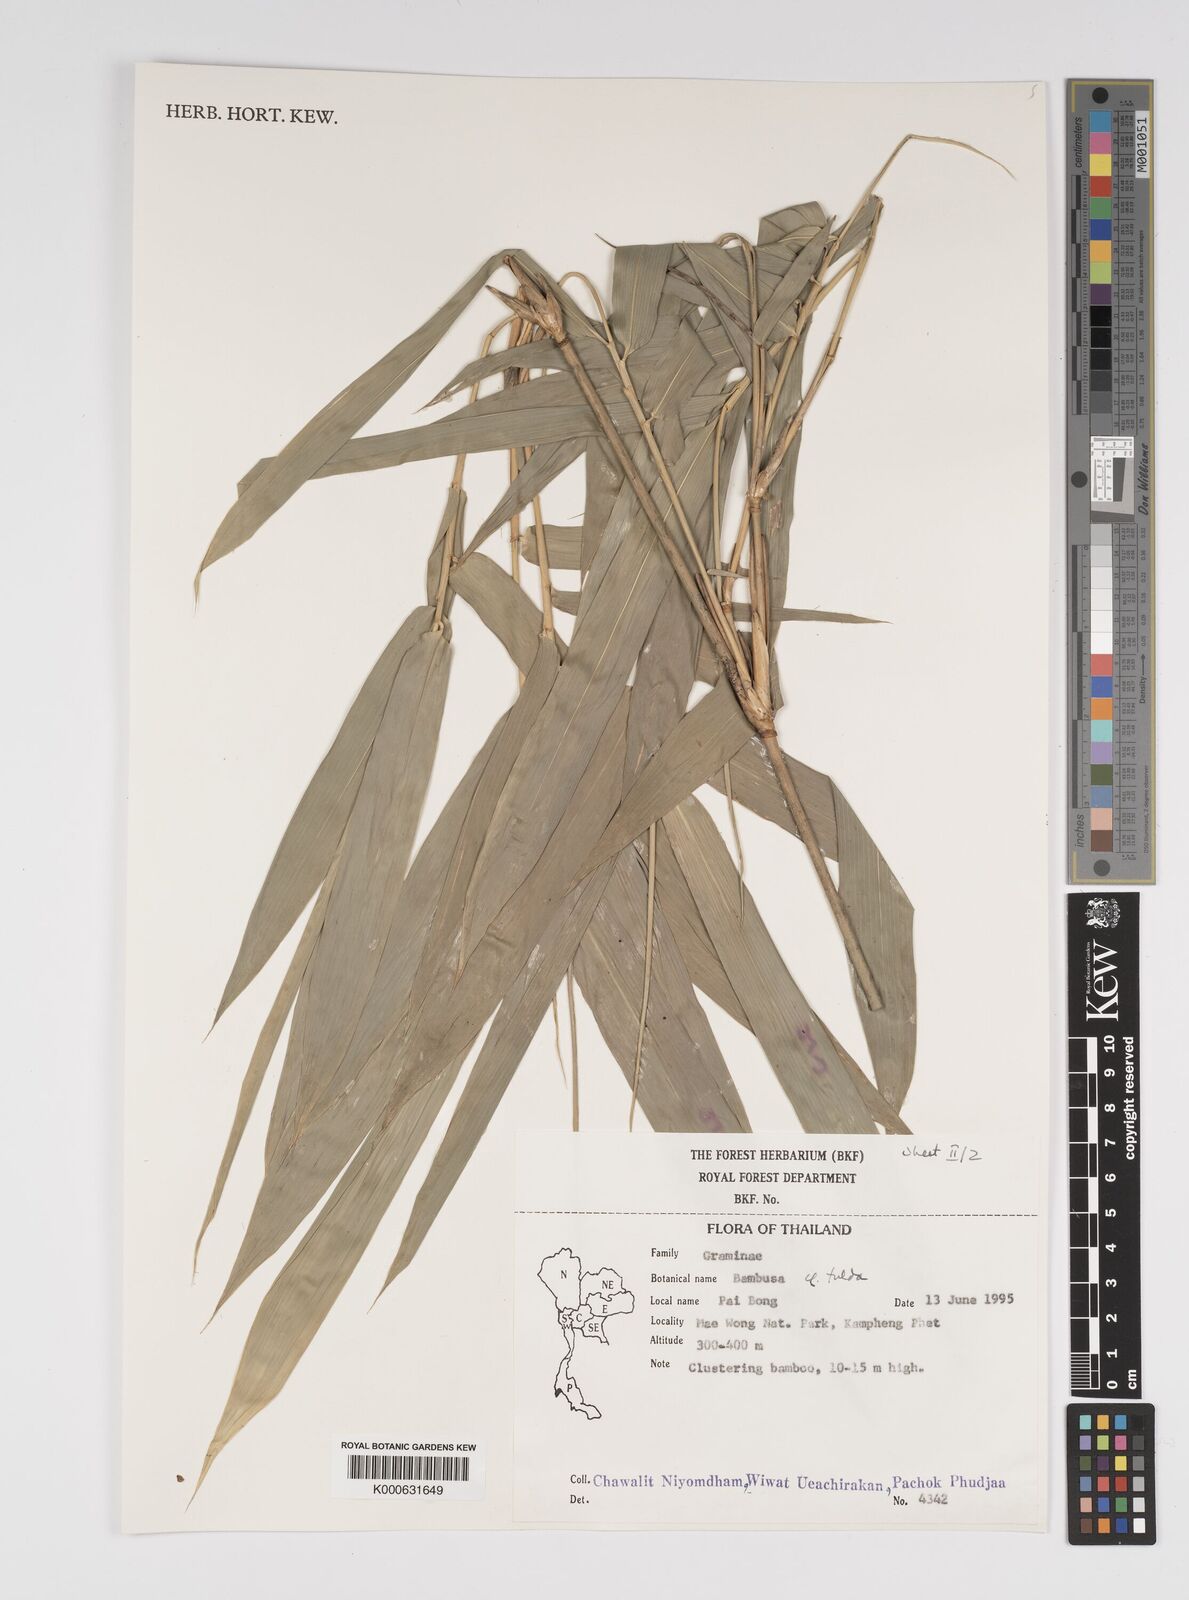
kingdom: Plantae
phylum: Tracheophyta
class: Liliopsida
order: Poales
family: Poaceae
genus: Bambusa
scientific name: Bambusa
